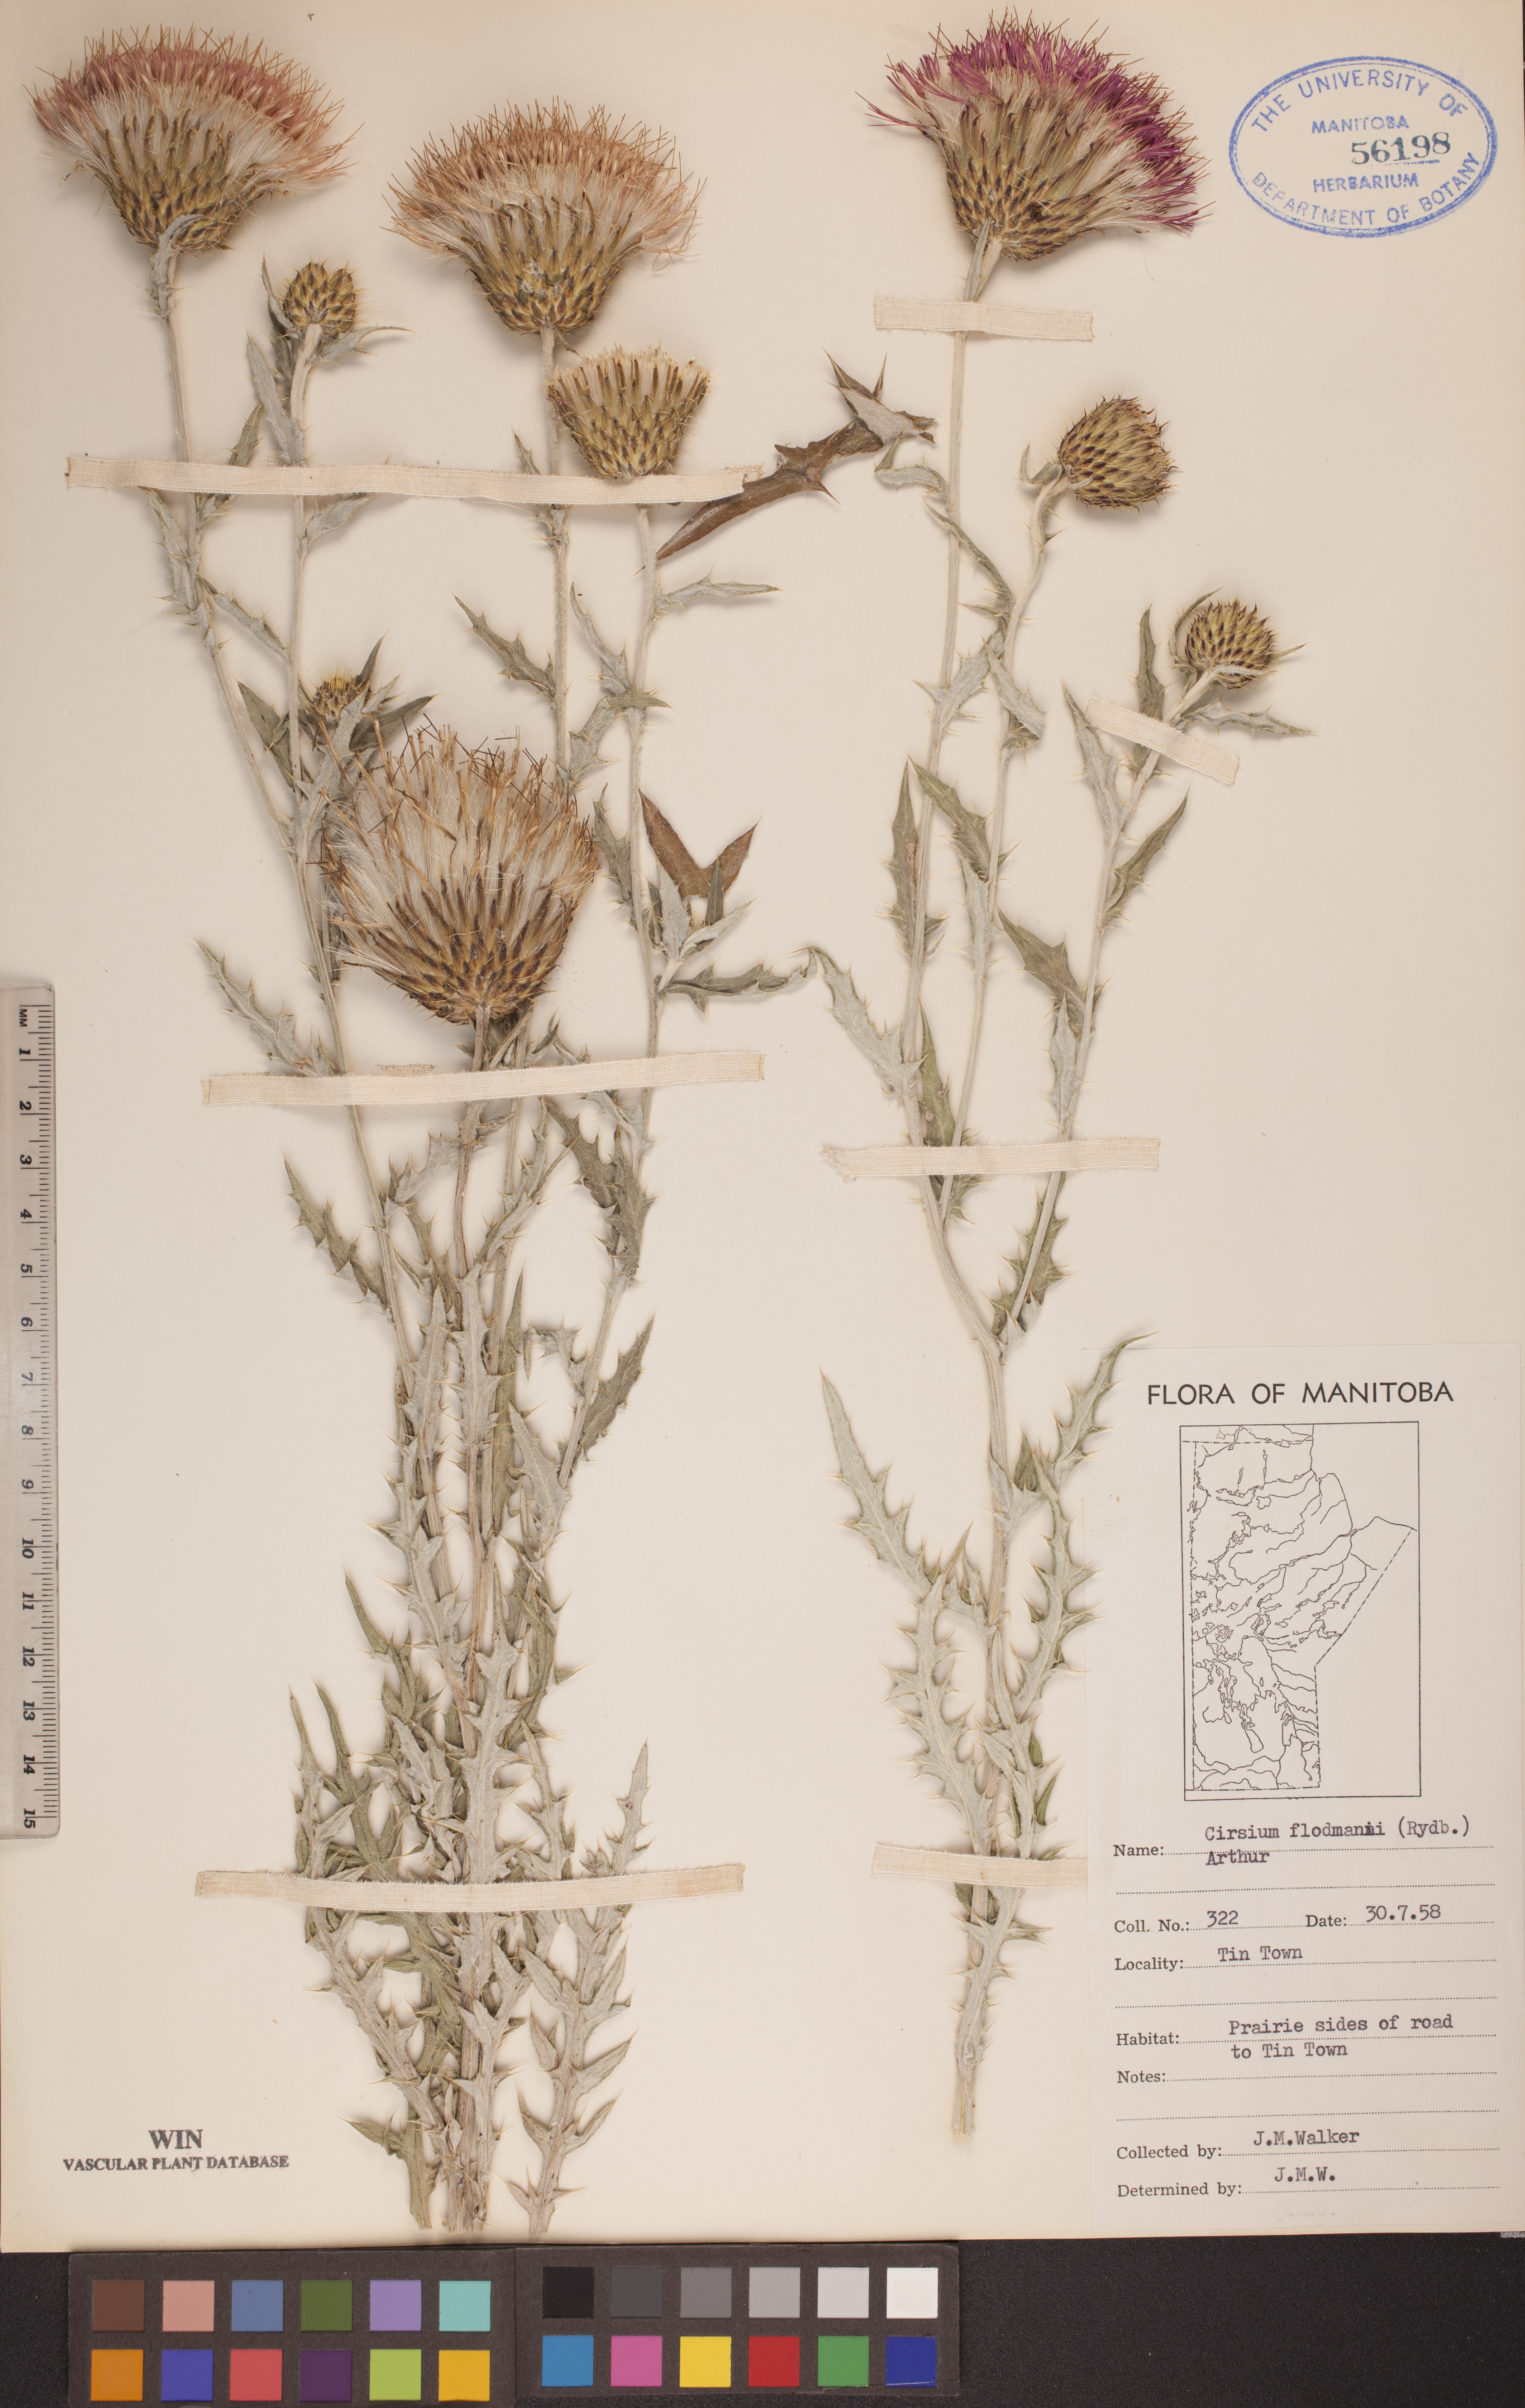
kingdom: Plantae
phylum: Tracheophyta
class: Magnoliopsida
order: Asterales
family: Asteraceae
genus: Cirsium
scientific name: Cirsium flodmanii
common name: Flodman's thistle
